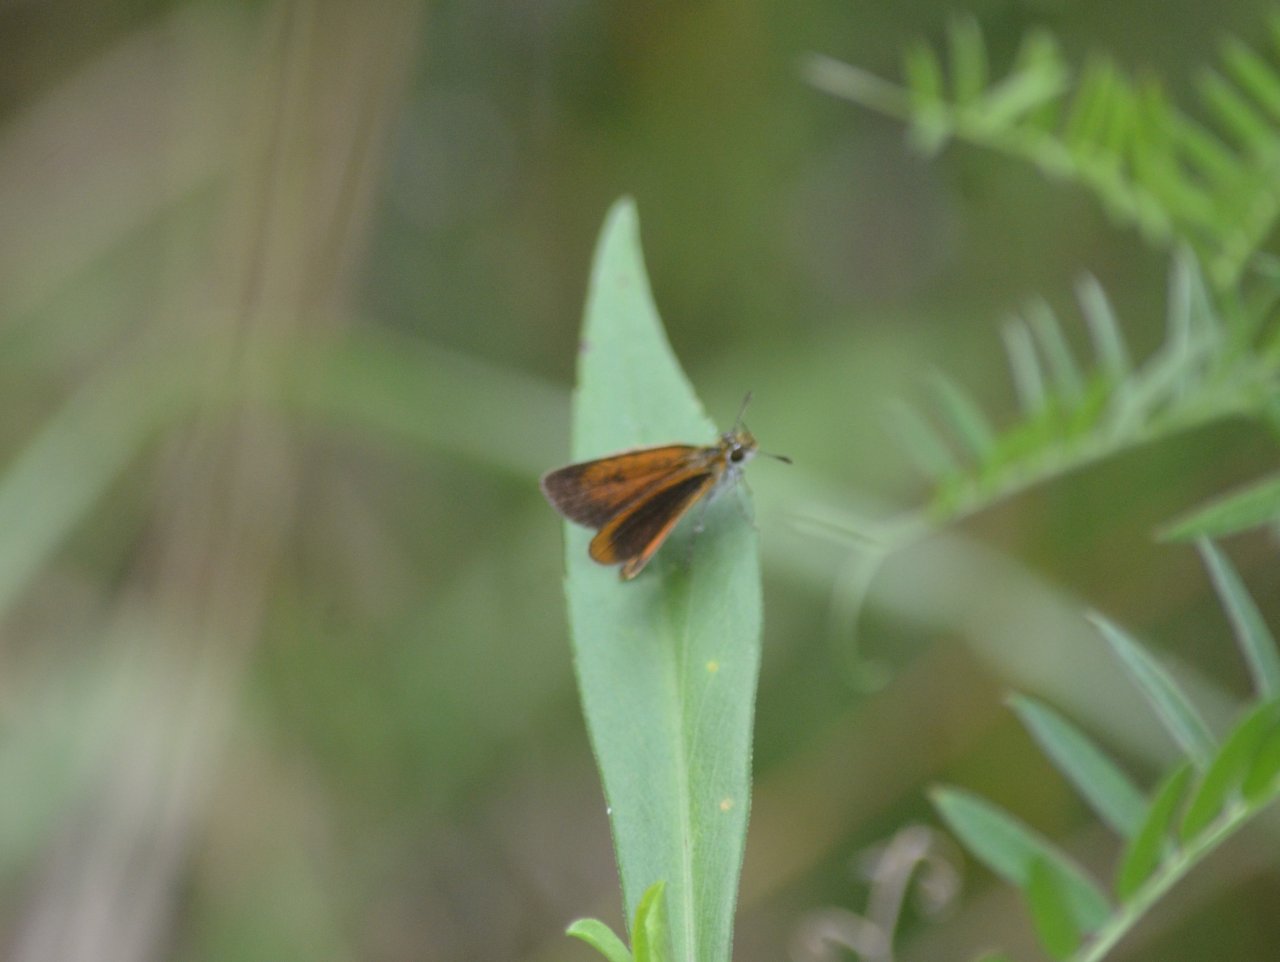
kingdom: Animalia
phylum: Arthropoda
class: Insecta
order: Lepidoptera
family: Hesperiidae
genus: Ancyloxypha
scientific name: Ancyloxypha numitor
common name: Least Skipper
